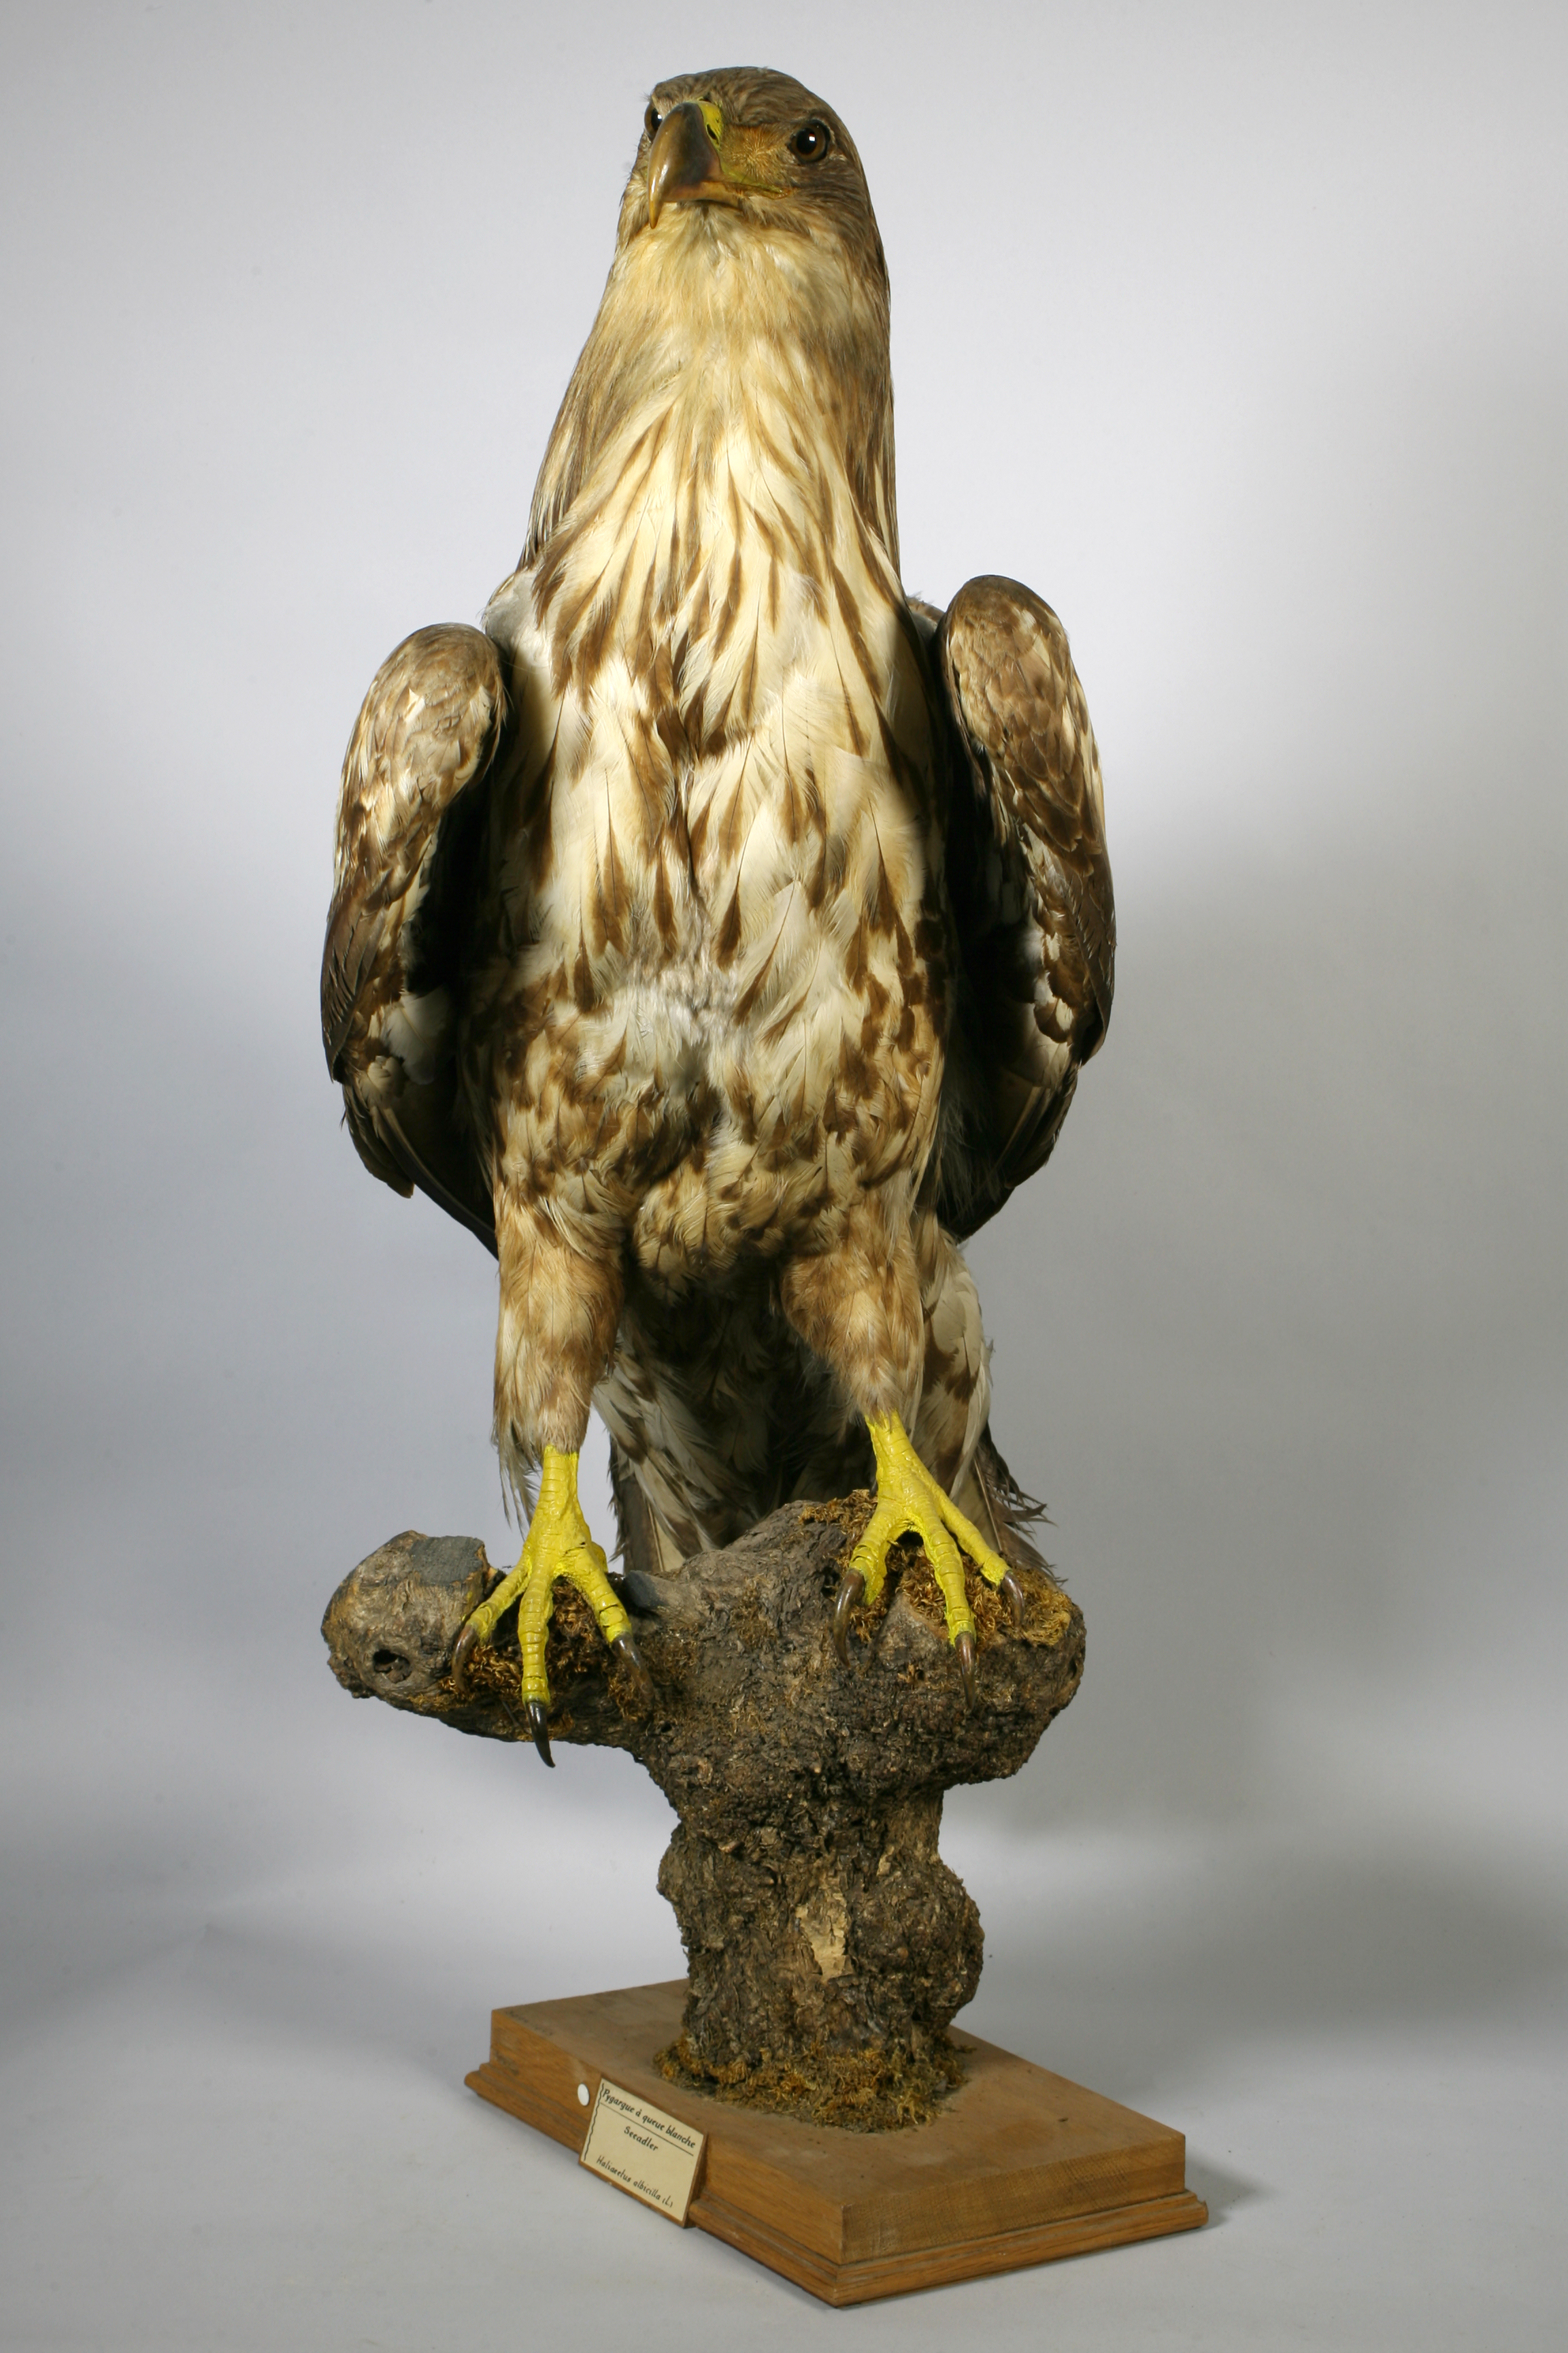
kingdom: Animalia
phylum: Chordata
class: Aves
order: Accipitriformes
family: Accipitridae
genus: Haliaeetus
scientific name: Haliaeetus albicilla
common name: White-tailed eagle
